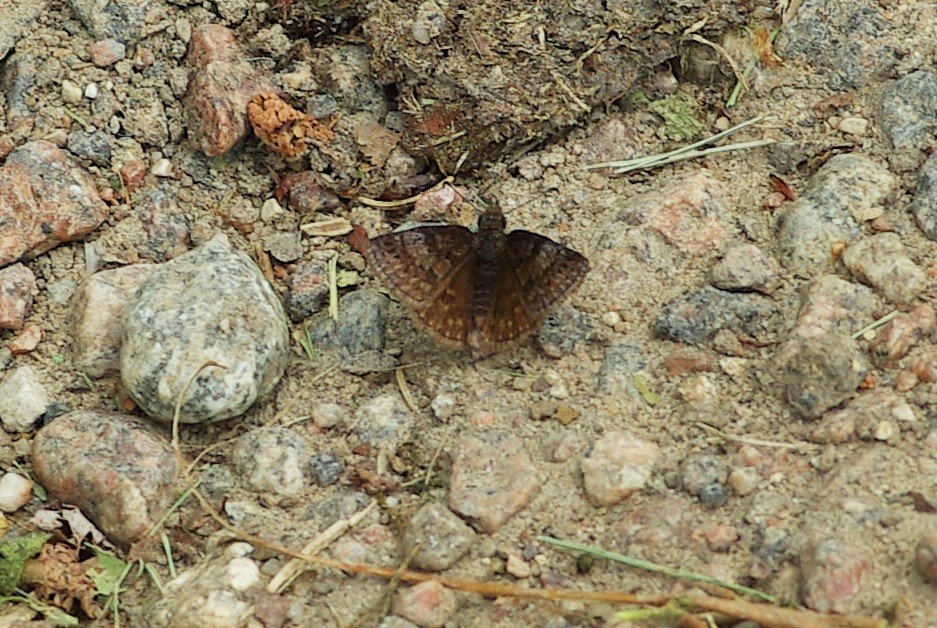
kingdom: Animalia
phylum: Arthropoda
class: Insecta
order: Lepidoptera
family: Hesperiidae
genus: Erynnis
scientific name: Erynnis icelus
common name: Dreamy Duskywing
